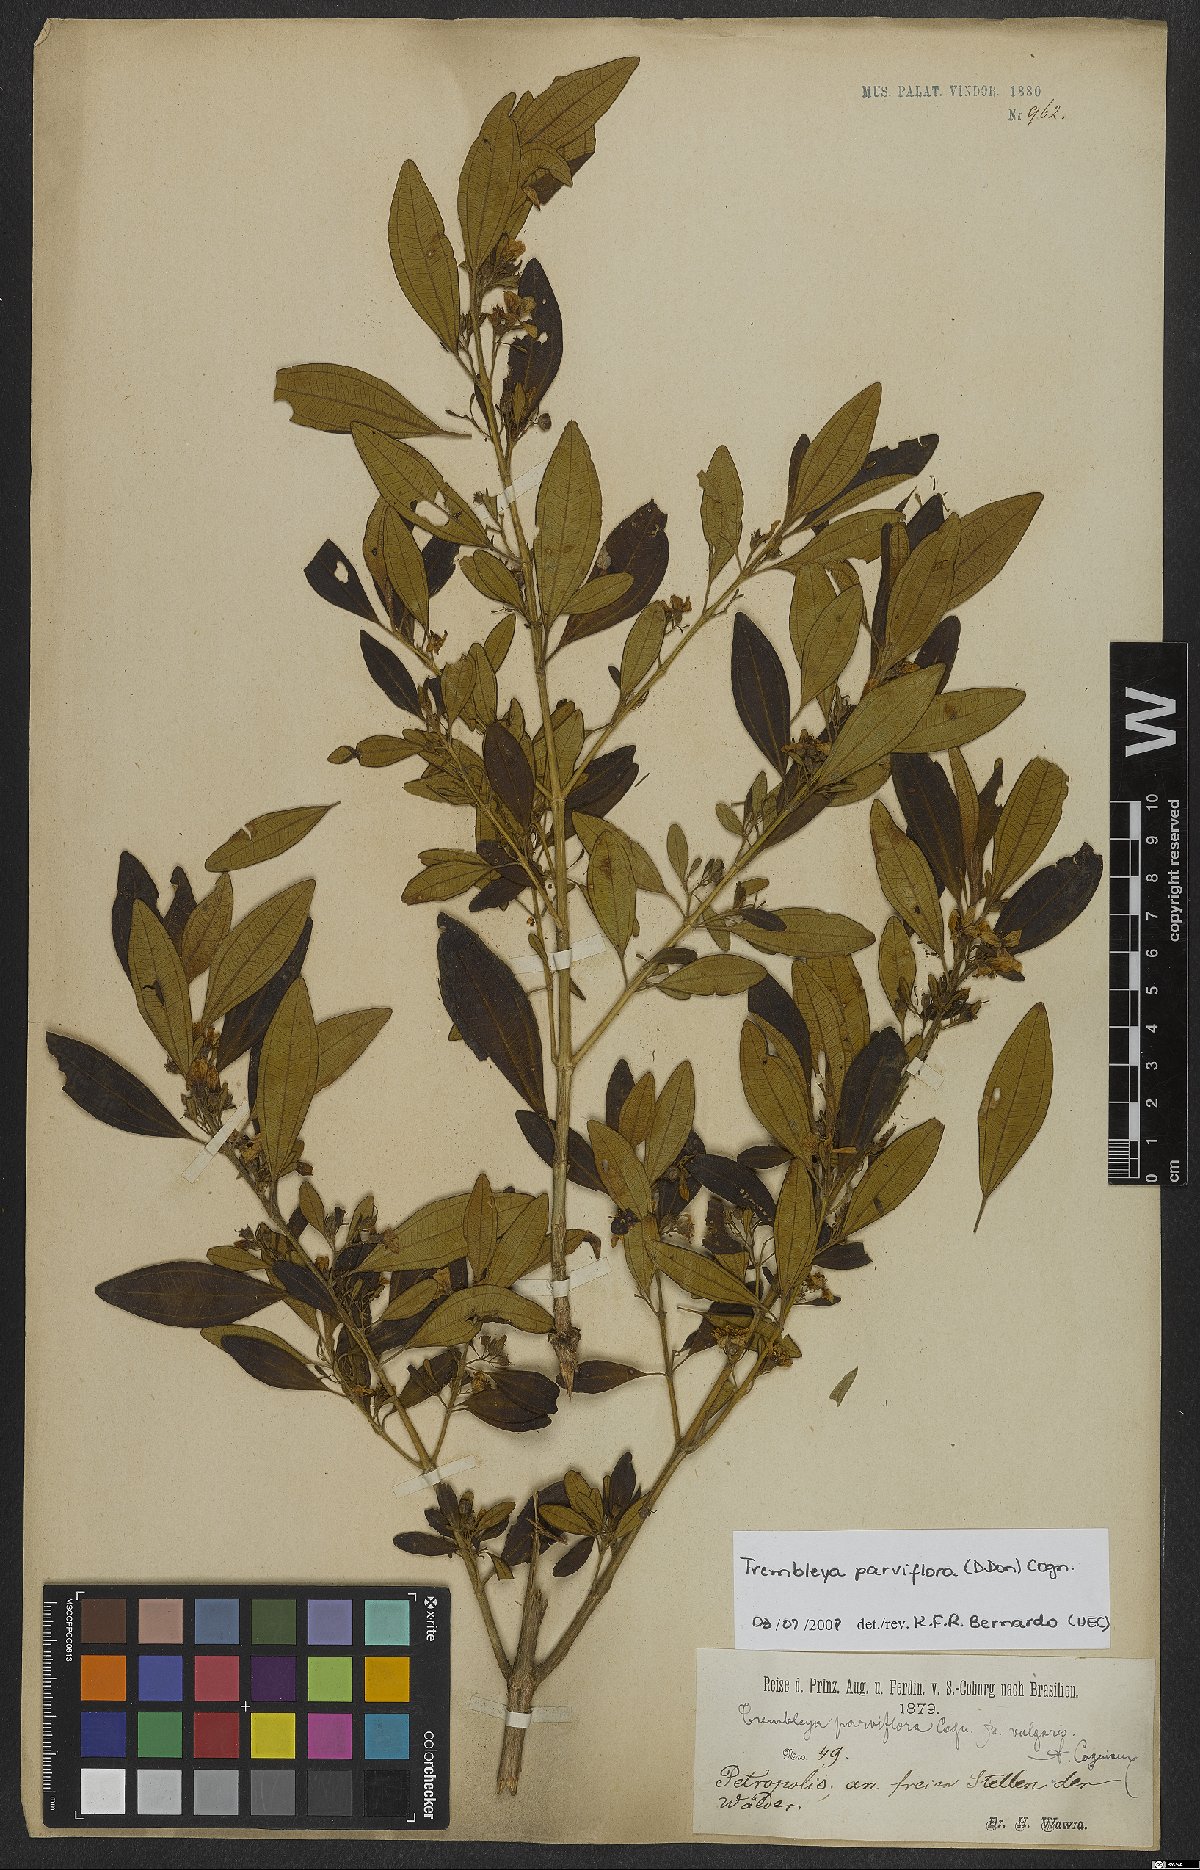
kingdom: Plantae
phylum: Tracheophyta
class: Magnoliopsida
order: Myrtales
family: Melastomataceae
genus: Microlicia
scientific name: Microlicia parviflora
